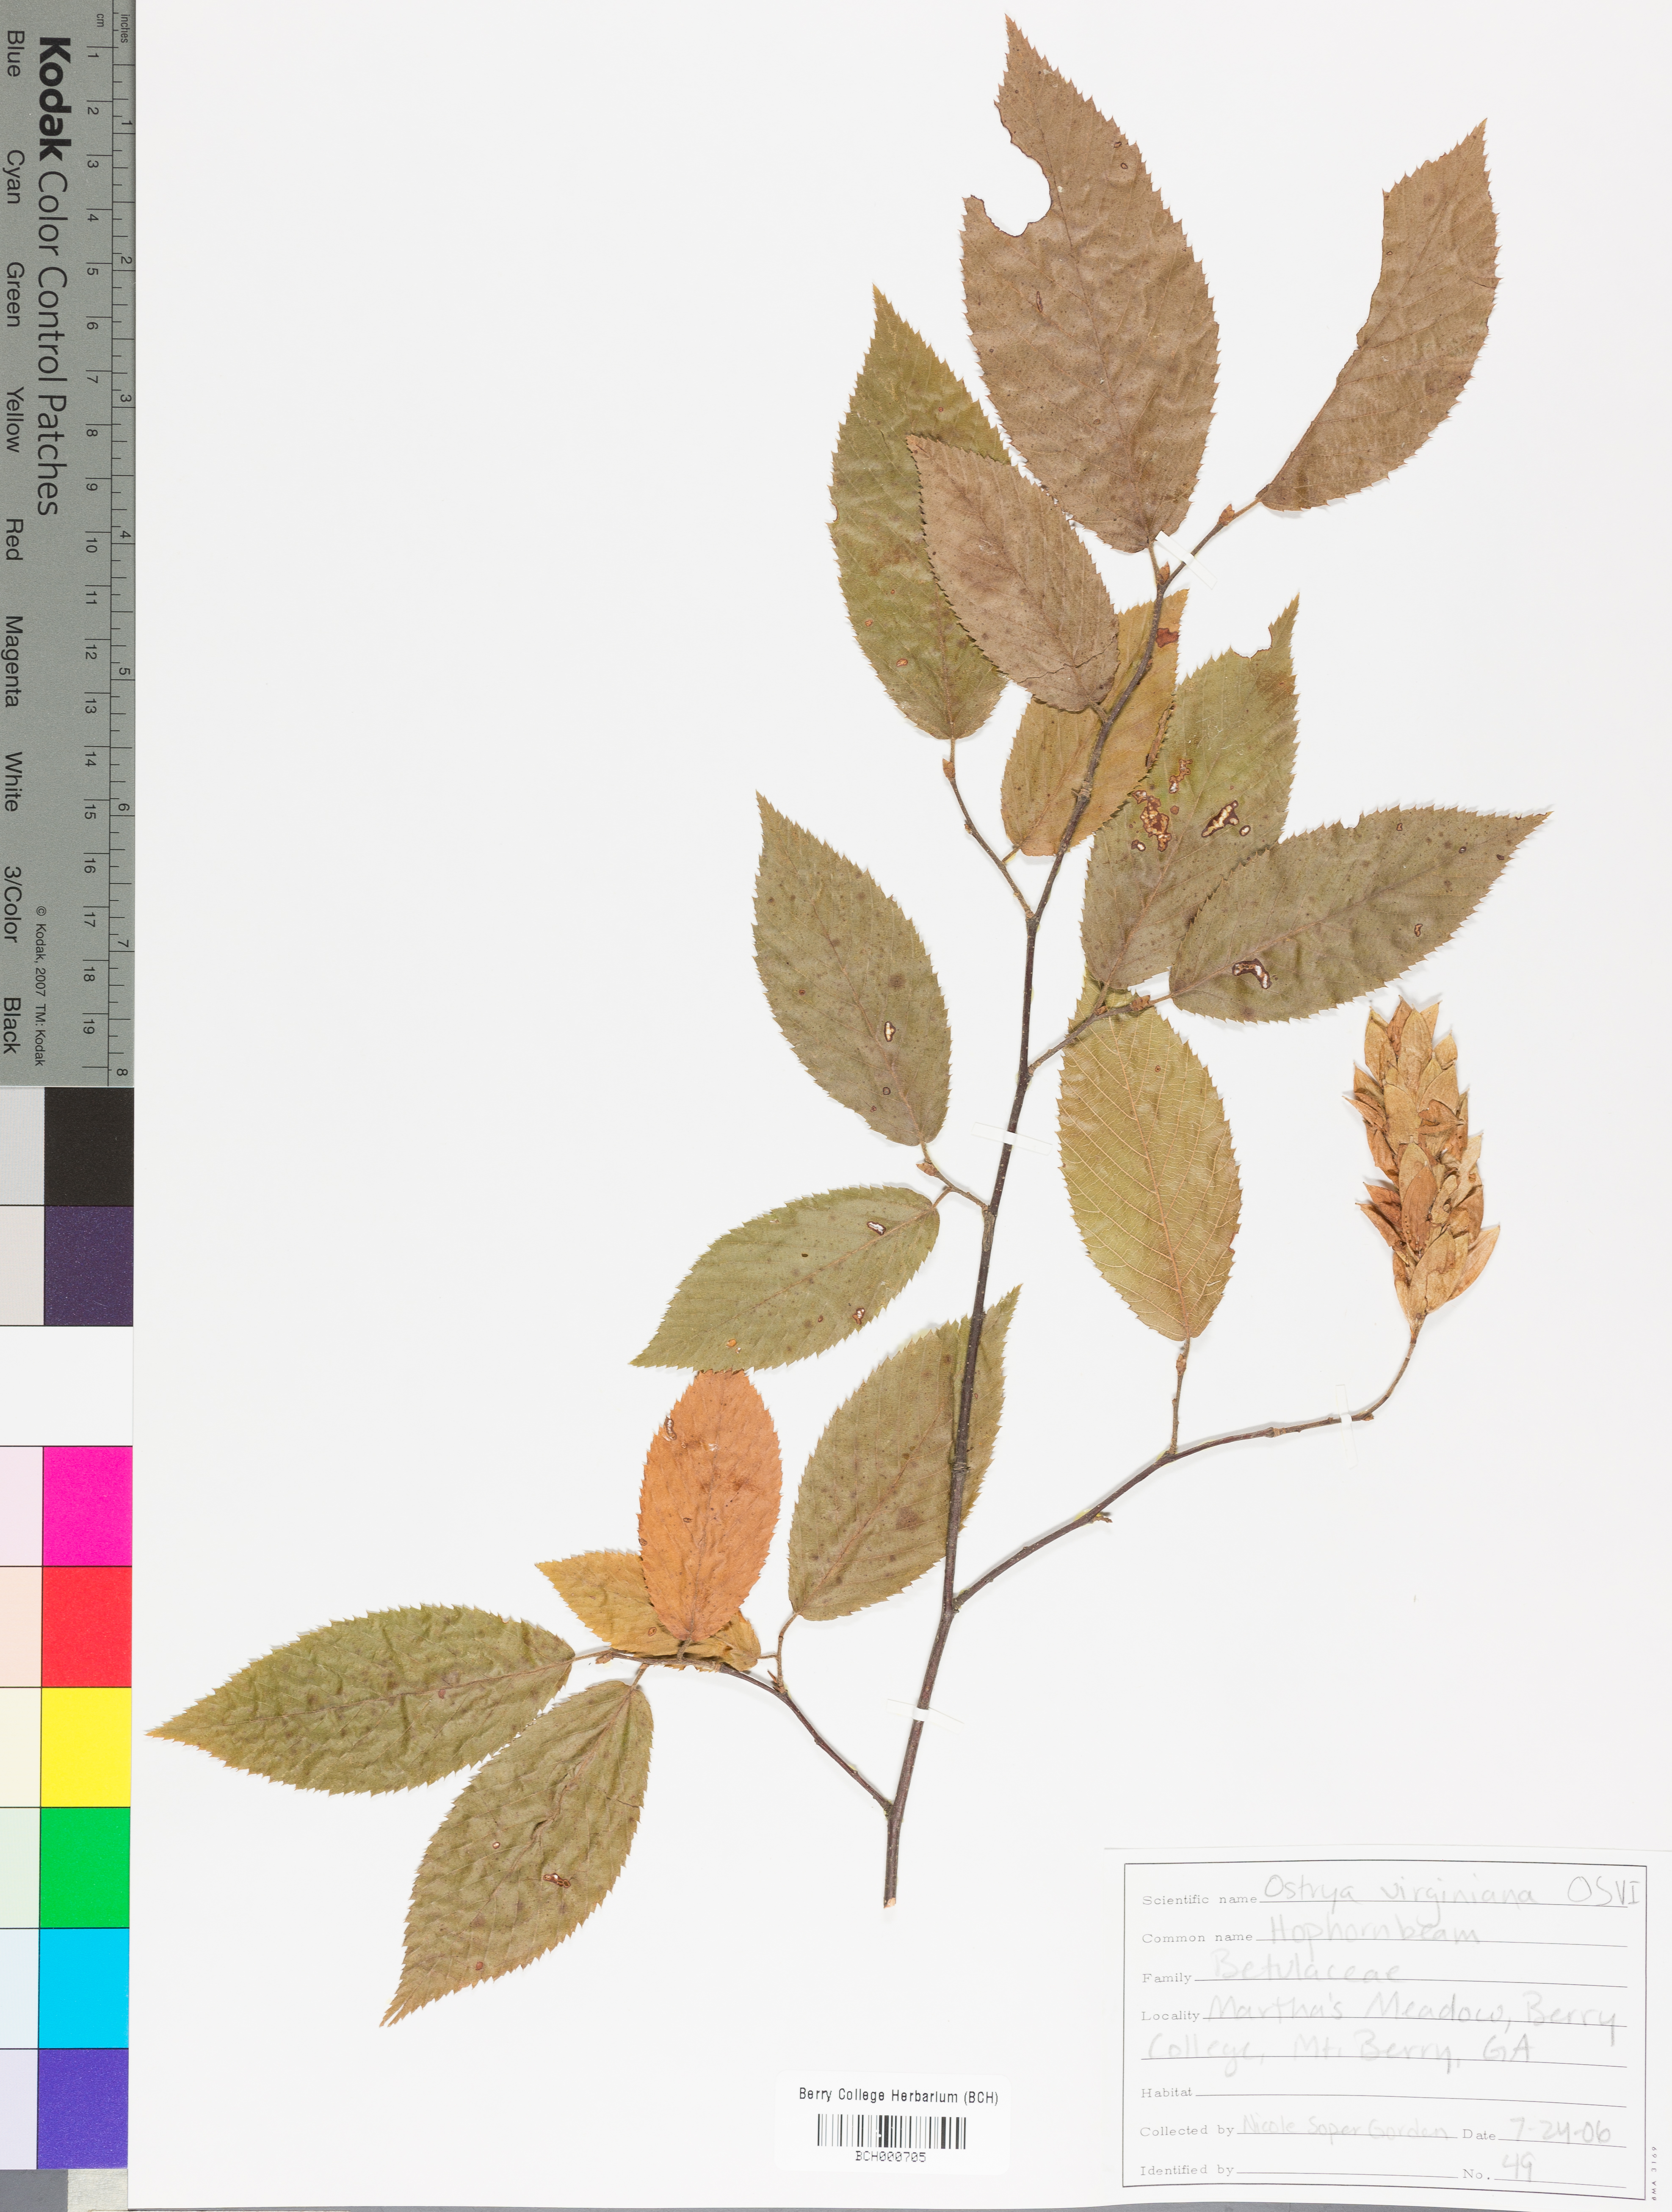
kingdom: Plantae
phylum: Tracheophyta
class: Magnoliopsida
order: Fagales
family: Betulaceae
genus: Ostrya
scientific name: Ostrya virginiana
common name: Ironwood
